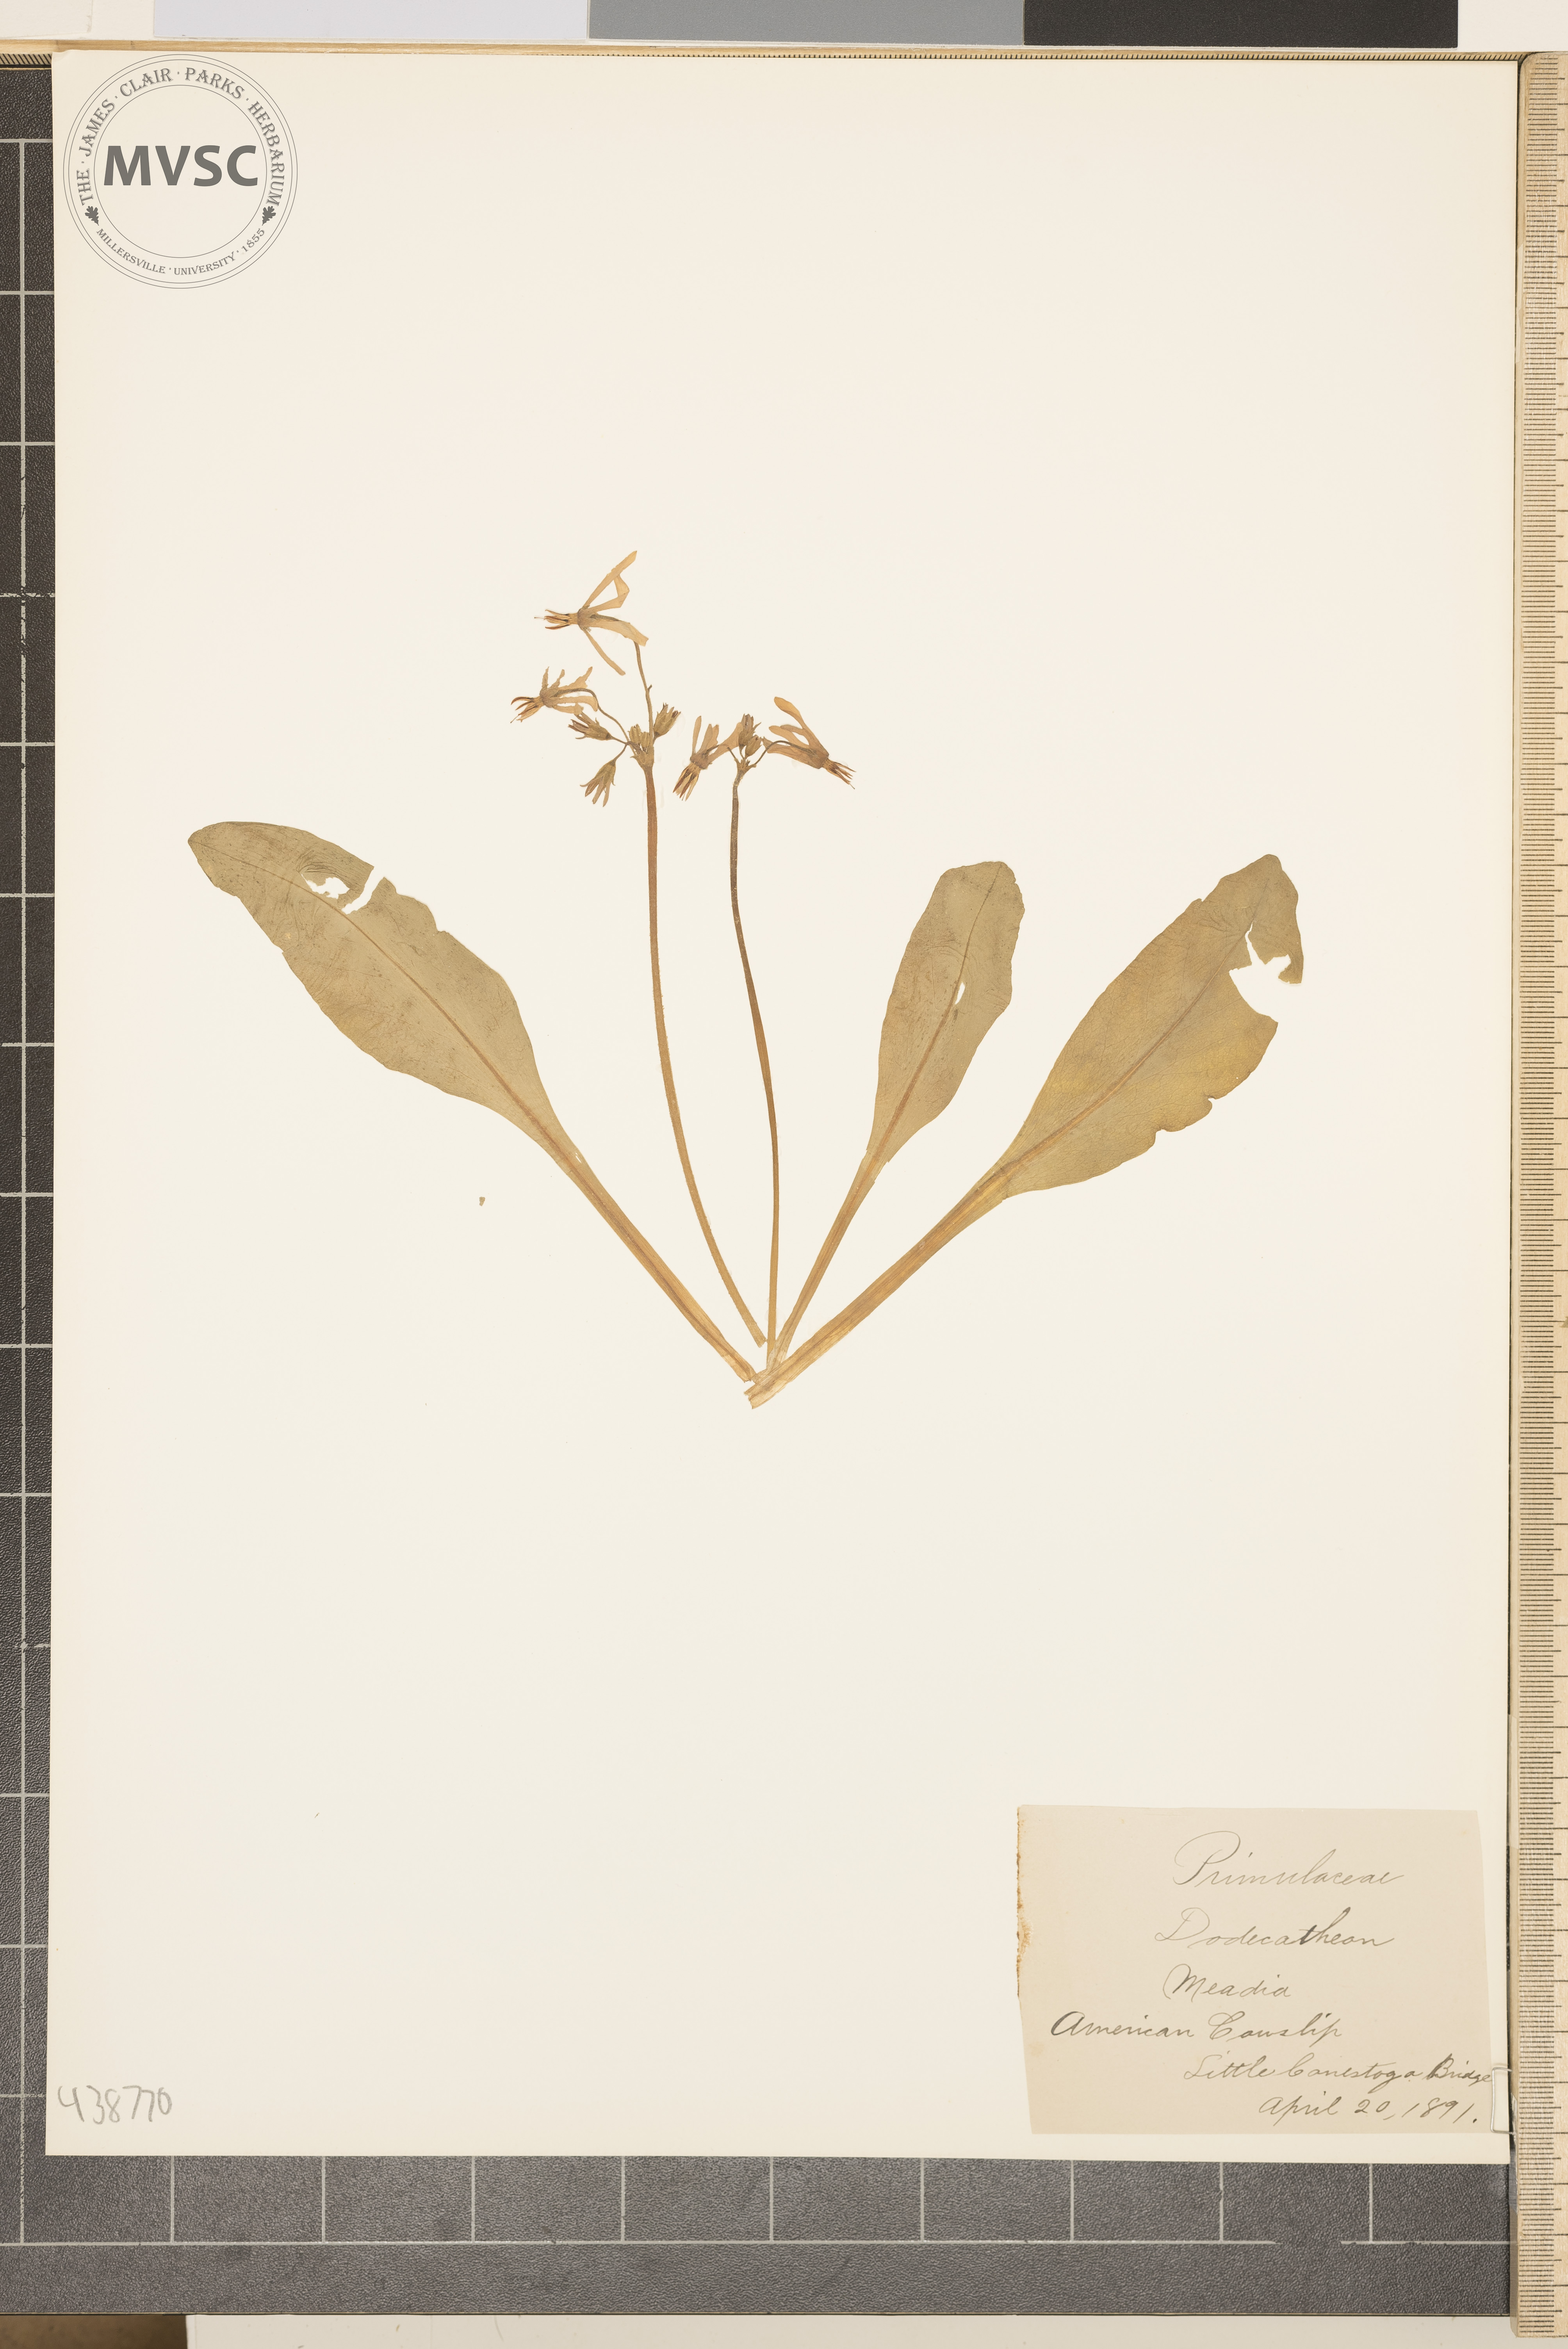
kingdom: Plantae
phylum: Tracheophyta
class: Magnoliopsida
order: Ericales
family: Primulaceae
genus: Dodecatheon
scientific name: Dodecatheon meadia
